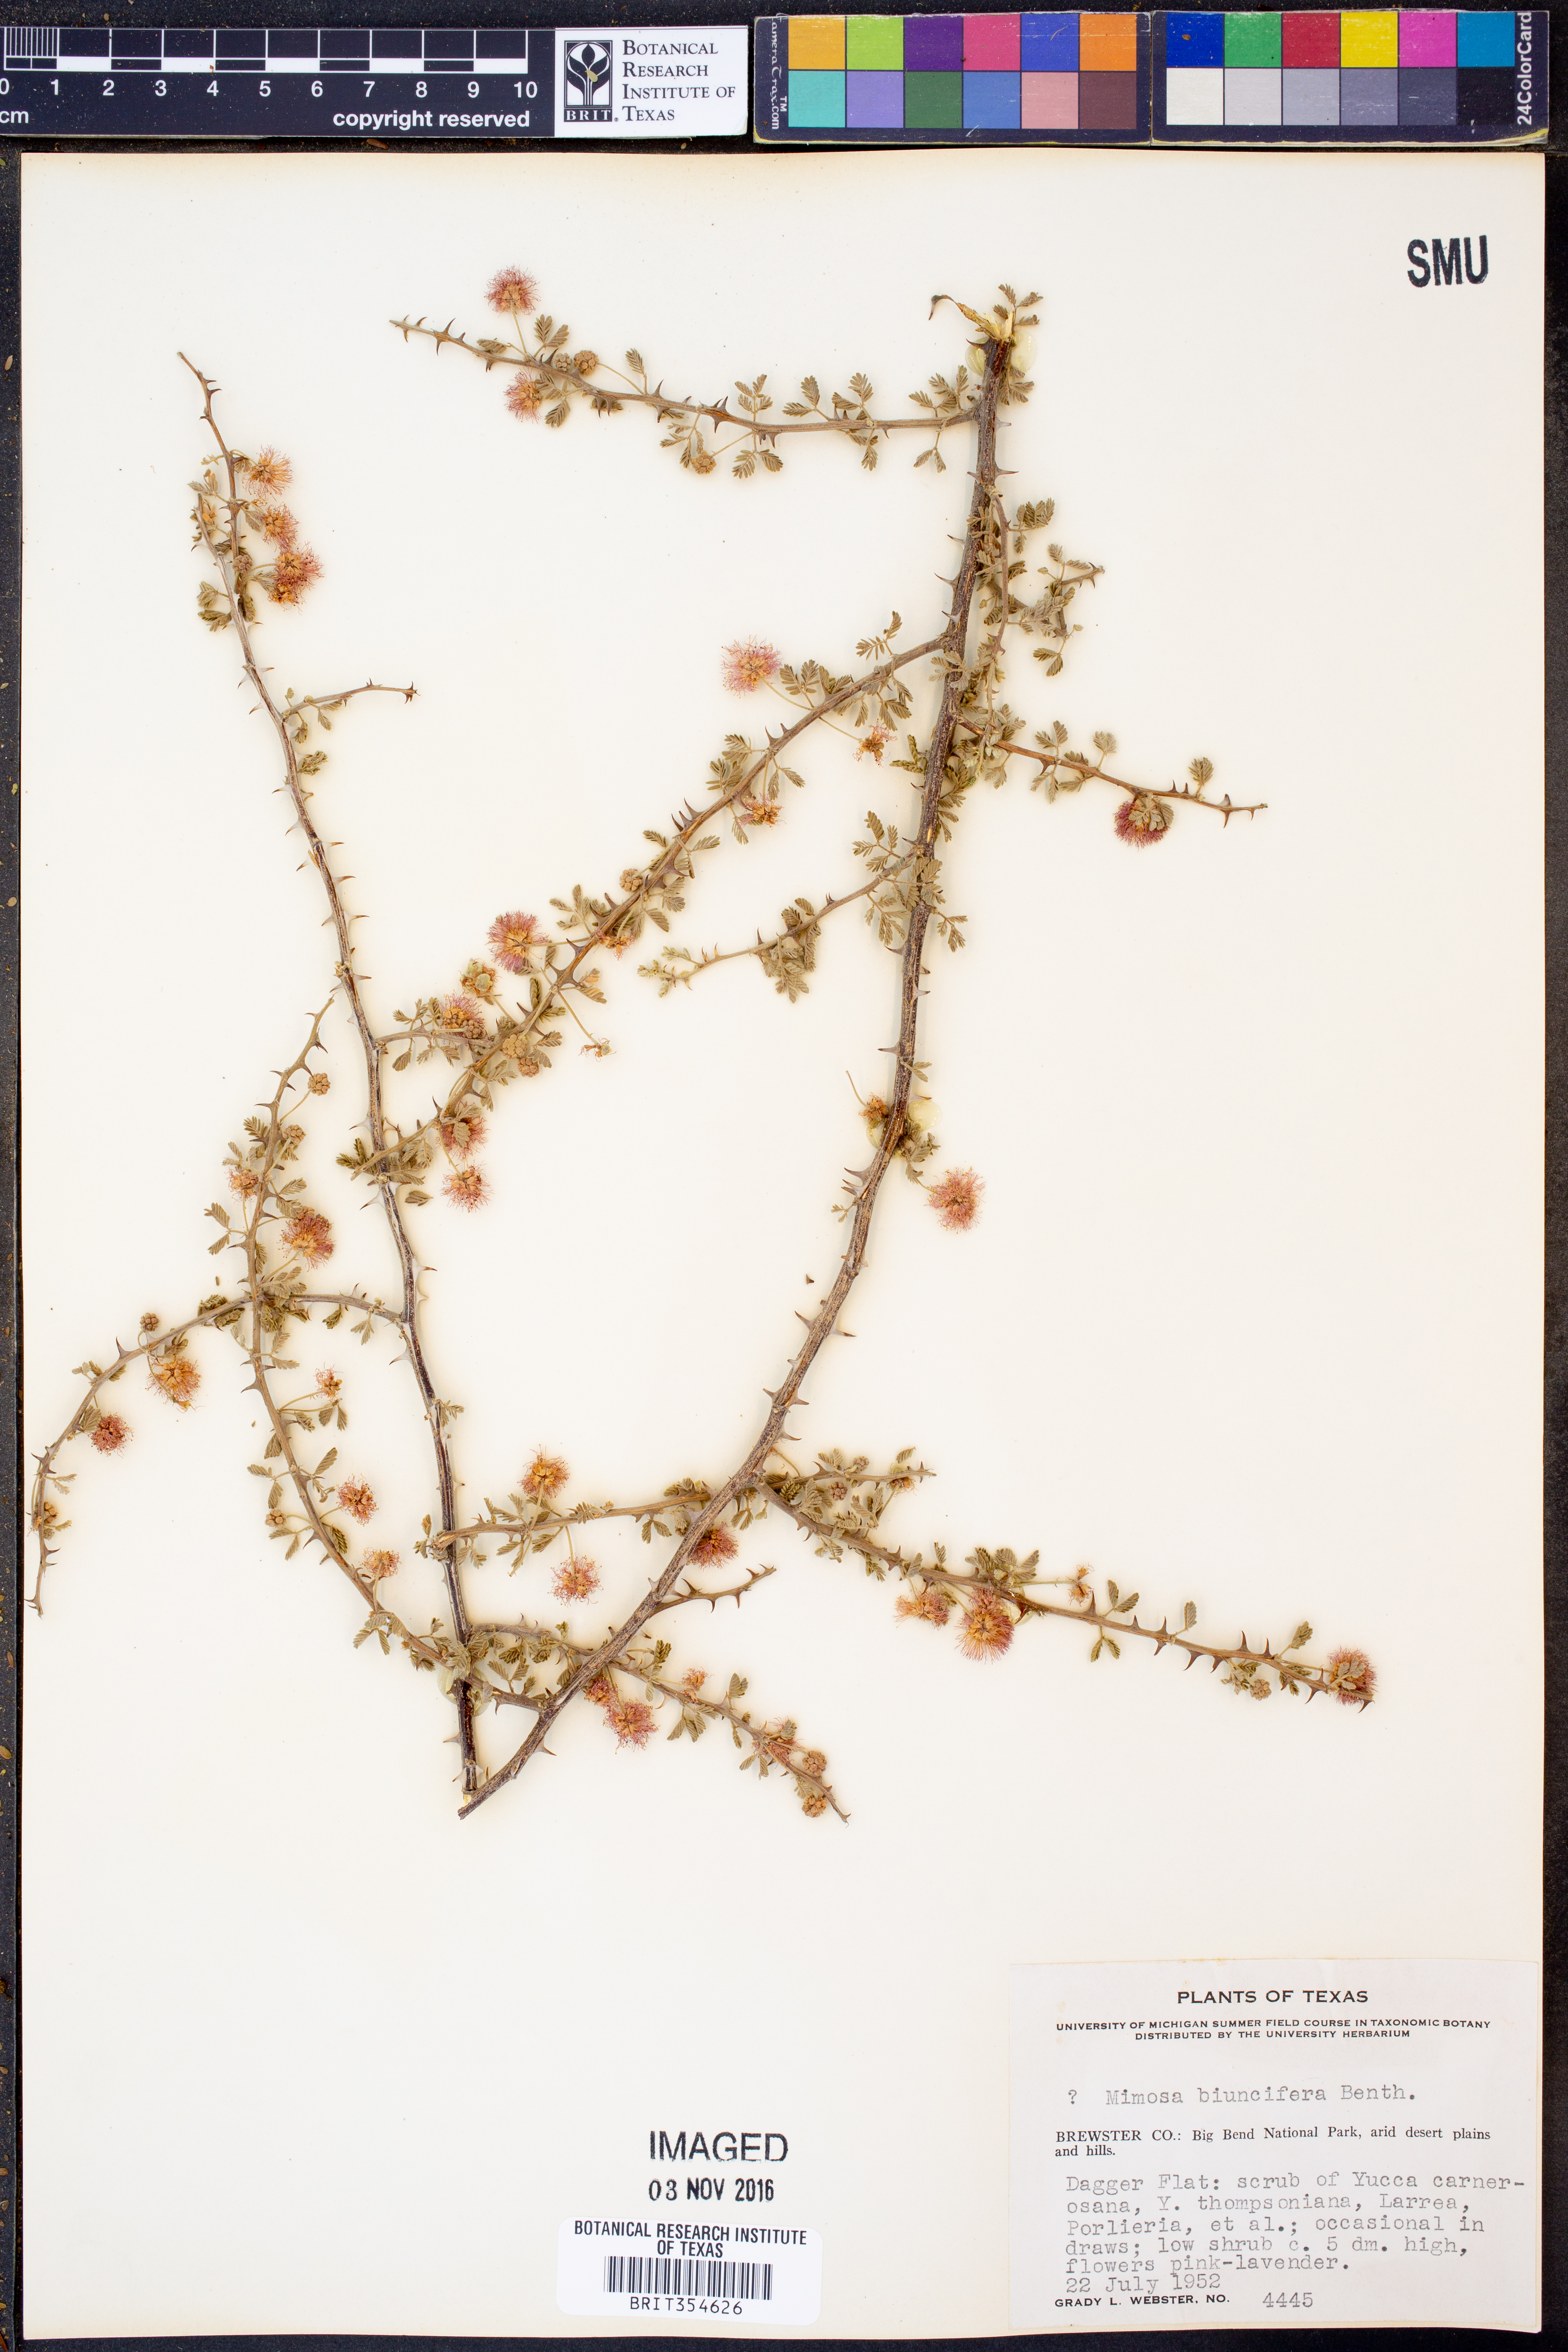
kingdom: Plantae
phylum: Tracheophyta
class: Magnoliopsida
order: Fabales
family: Fabaceae
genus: Mimosa
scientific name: Mimosa biuncifera
